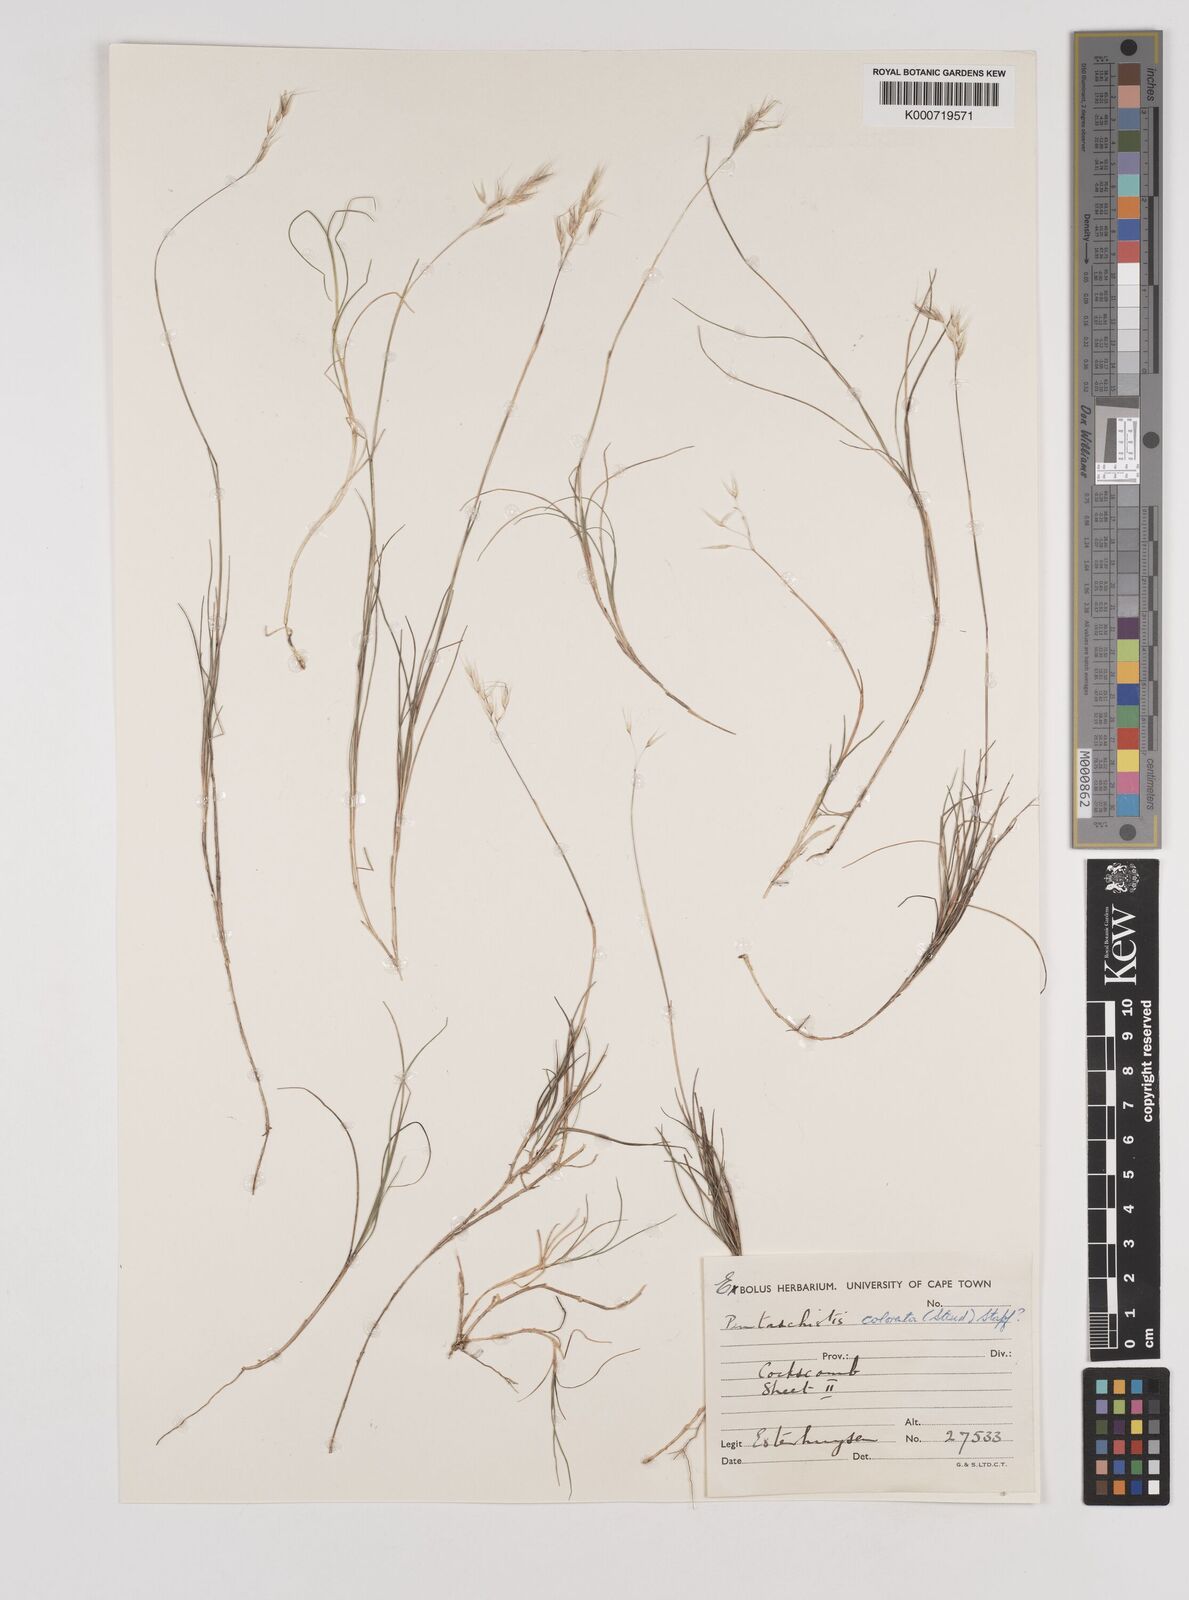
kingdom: Plantae
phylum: Tracheophyta
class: Liliopsida
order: Poales
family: Poaceae
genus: Pentameris
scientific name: Pentameris rigidissima
